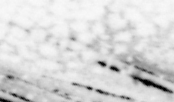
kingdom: Animalia
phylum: Chordata
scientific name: Chordata
